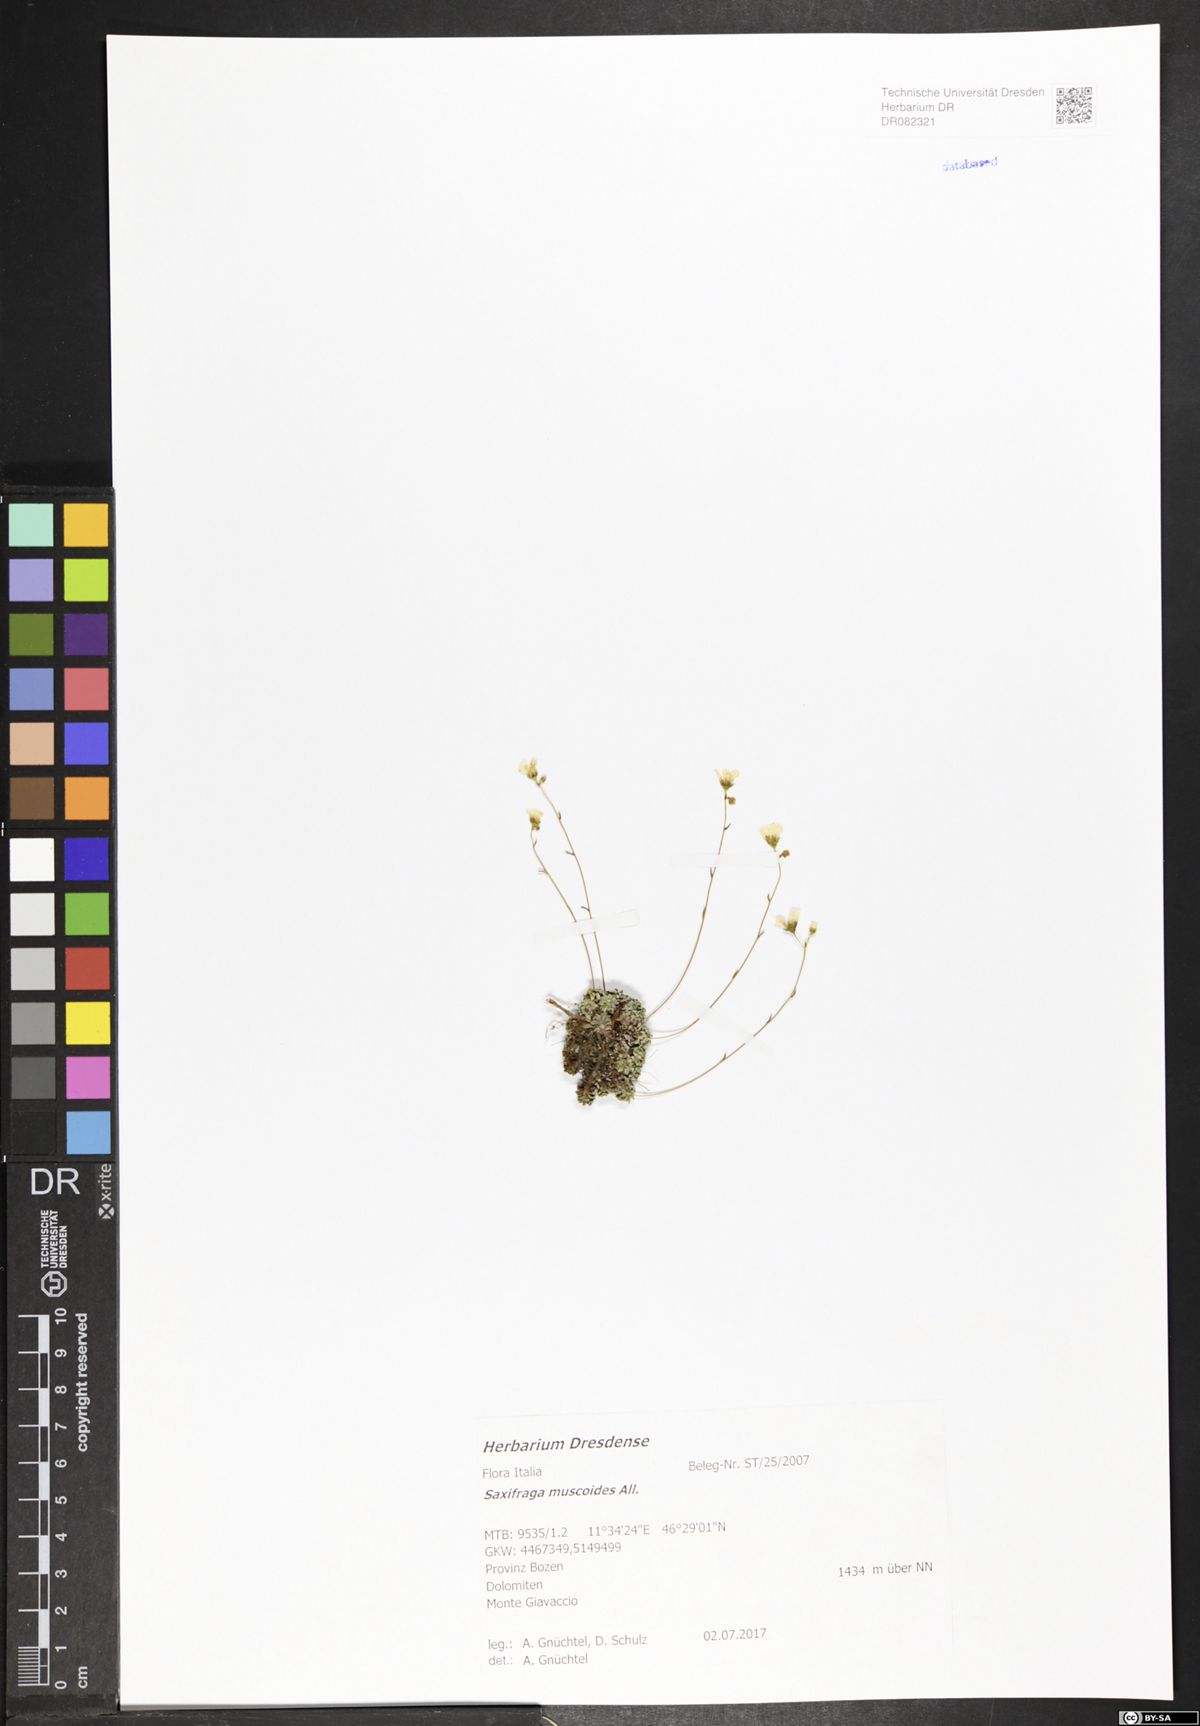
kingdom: Plantae
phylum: Tracheophyta
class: Magnoliopsida
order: Saxifragales
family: Saxifragaceae
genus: Saxifraga
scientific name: Saxifraga muscoides
